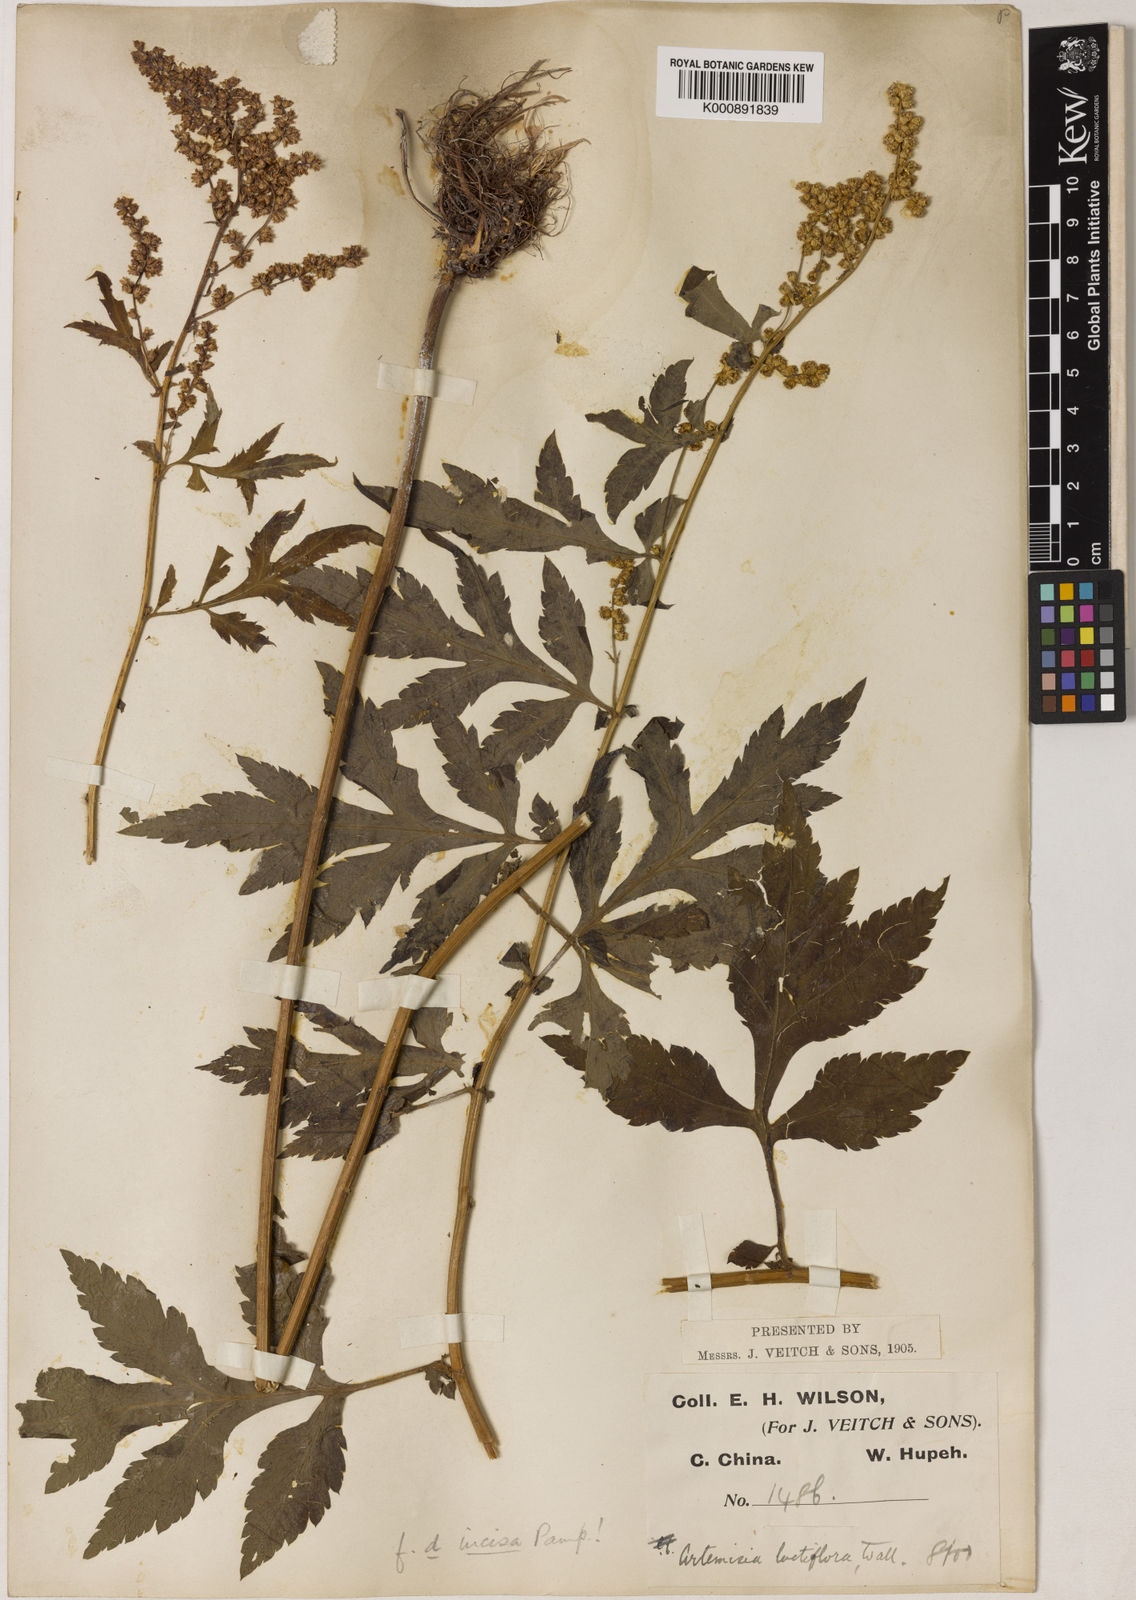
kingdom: Plantae
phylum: Tracheophyta
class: Magnoliopsida
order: Asterales
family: Asteraceae
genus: Artemisia
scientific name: Artemisia lactiflora
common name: White mugwort
